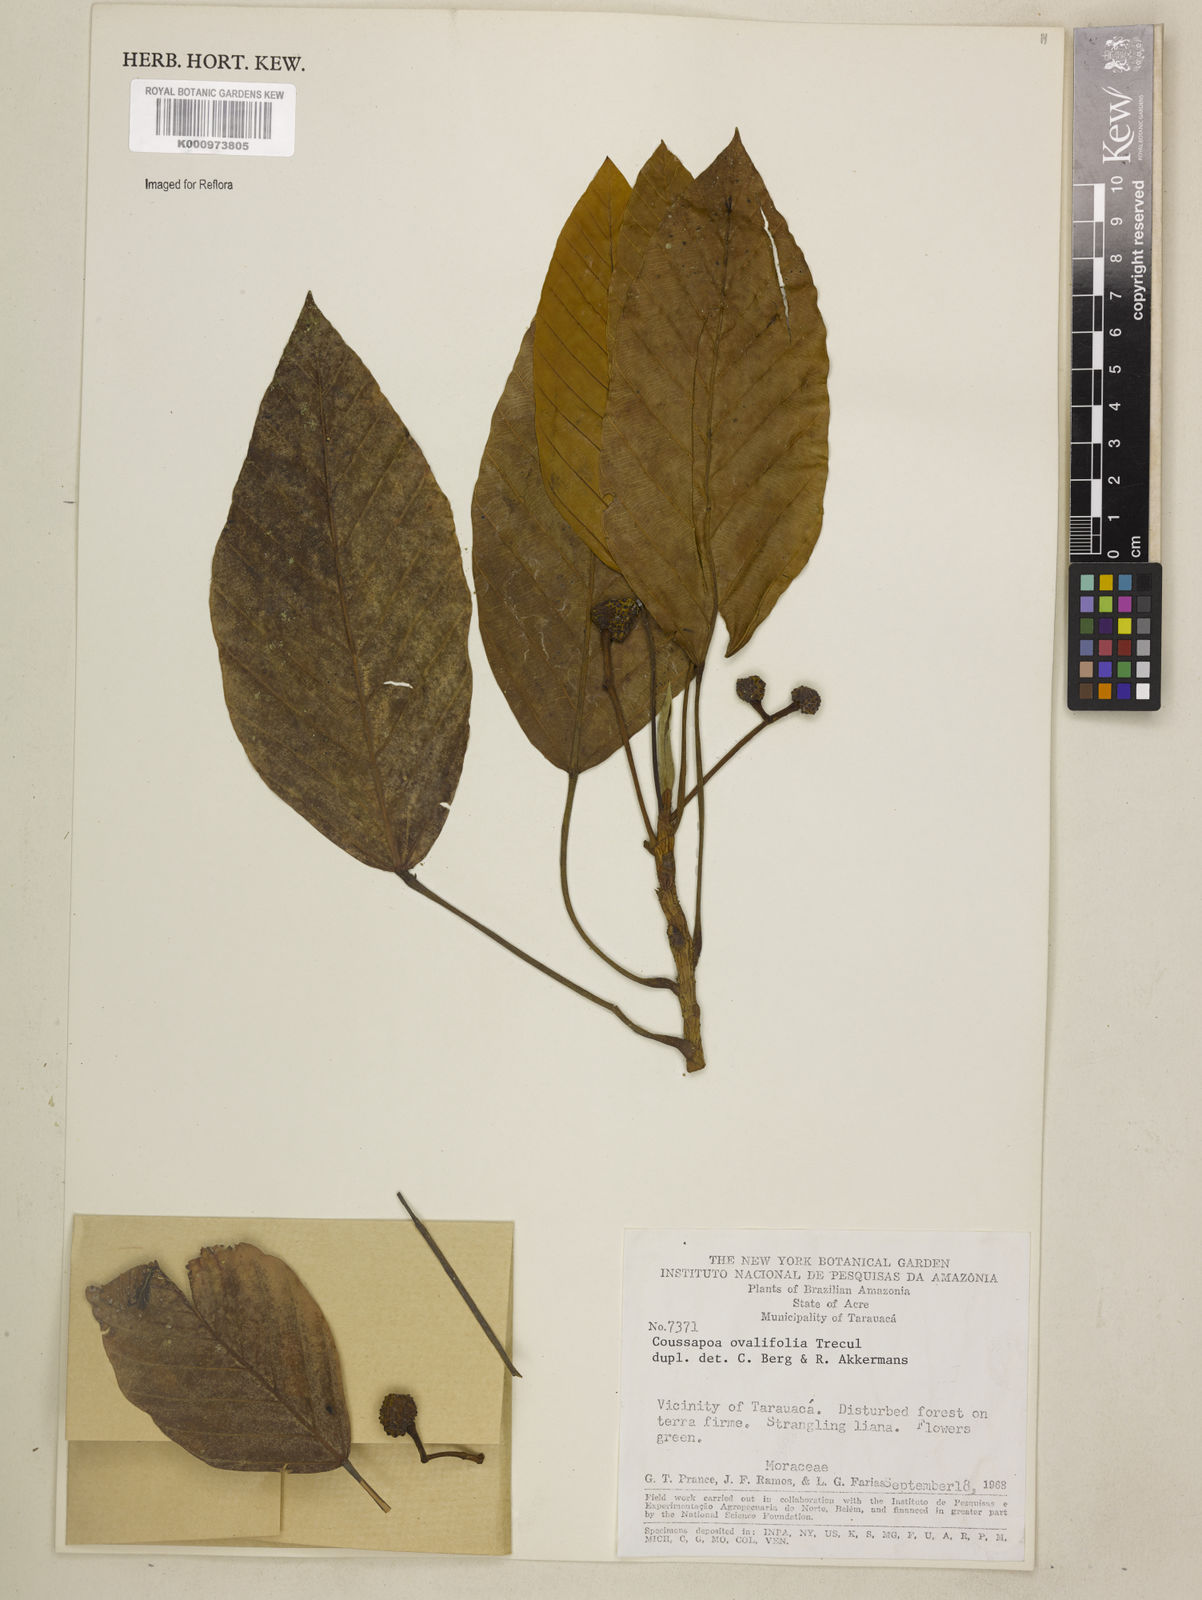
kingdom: Plantae
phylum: Tracheophyta
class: Magnoliopsida
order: Rosales
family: Urticaceae
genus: Coussapoa
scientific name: Coussapoa
